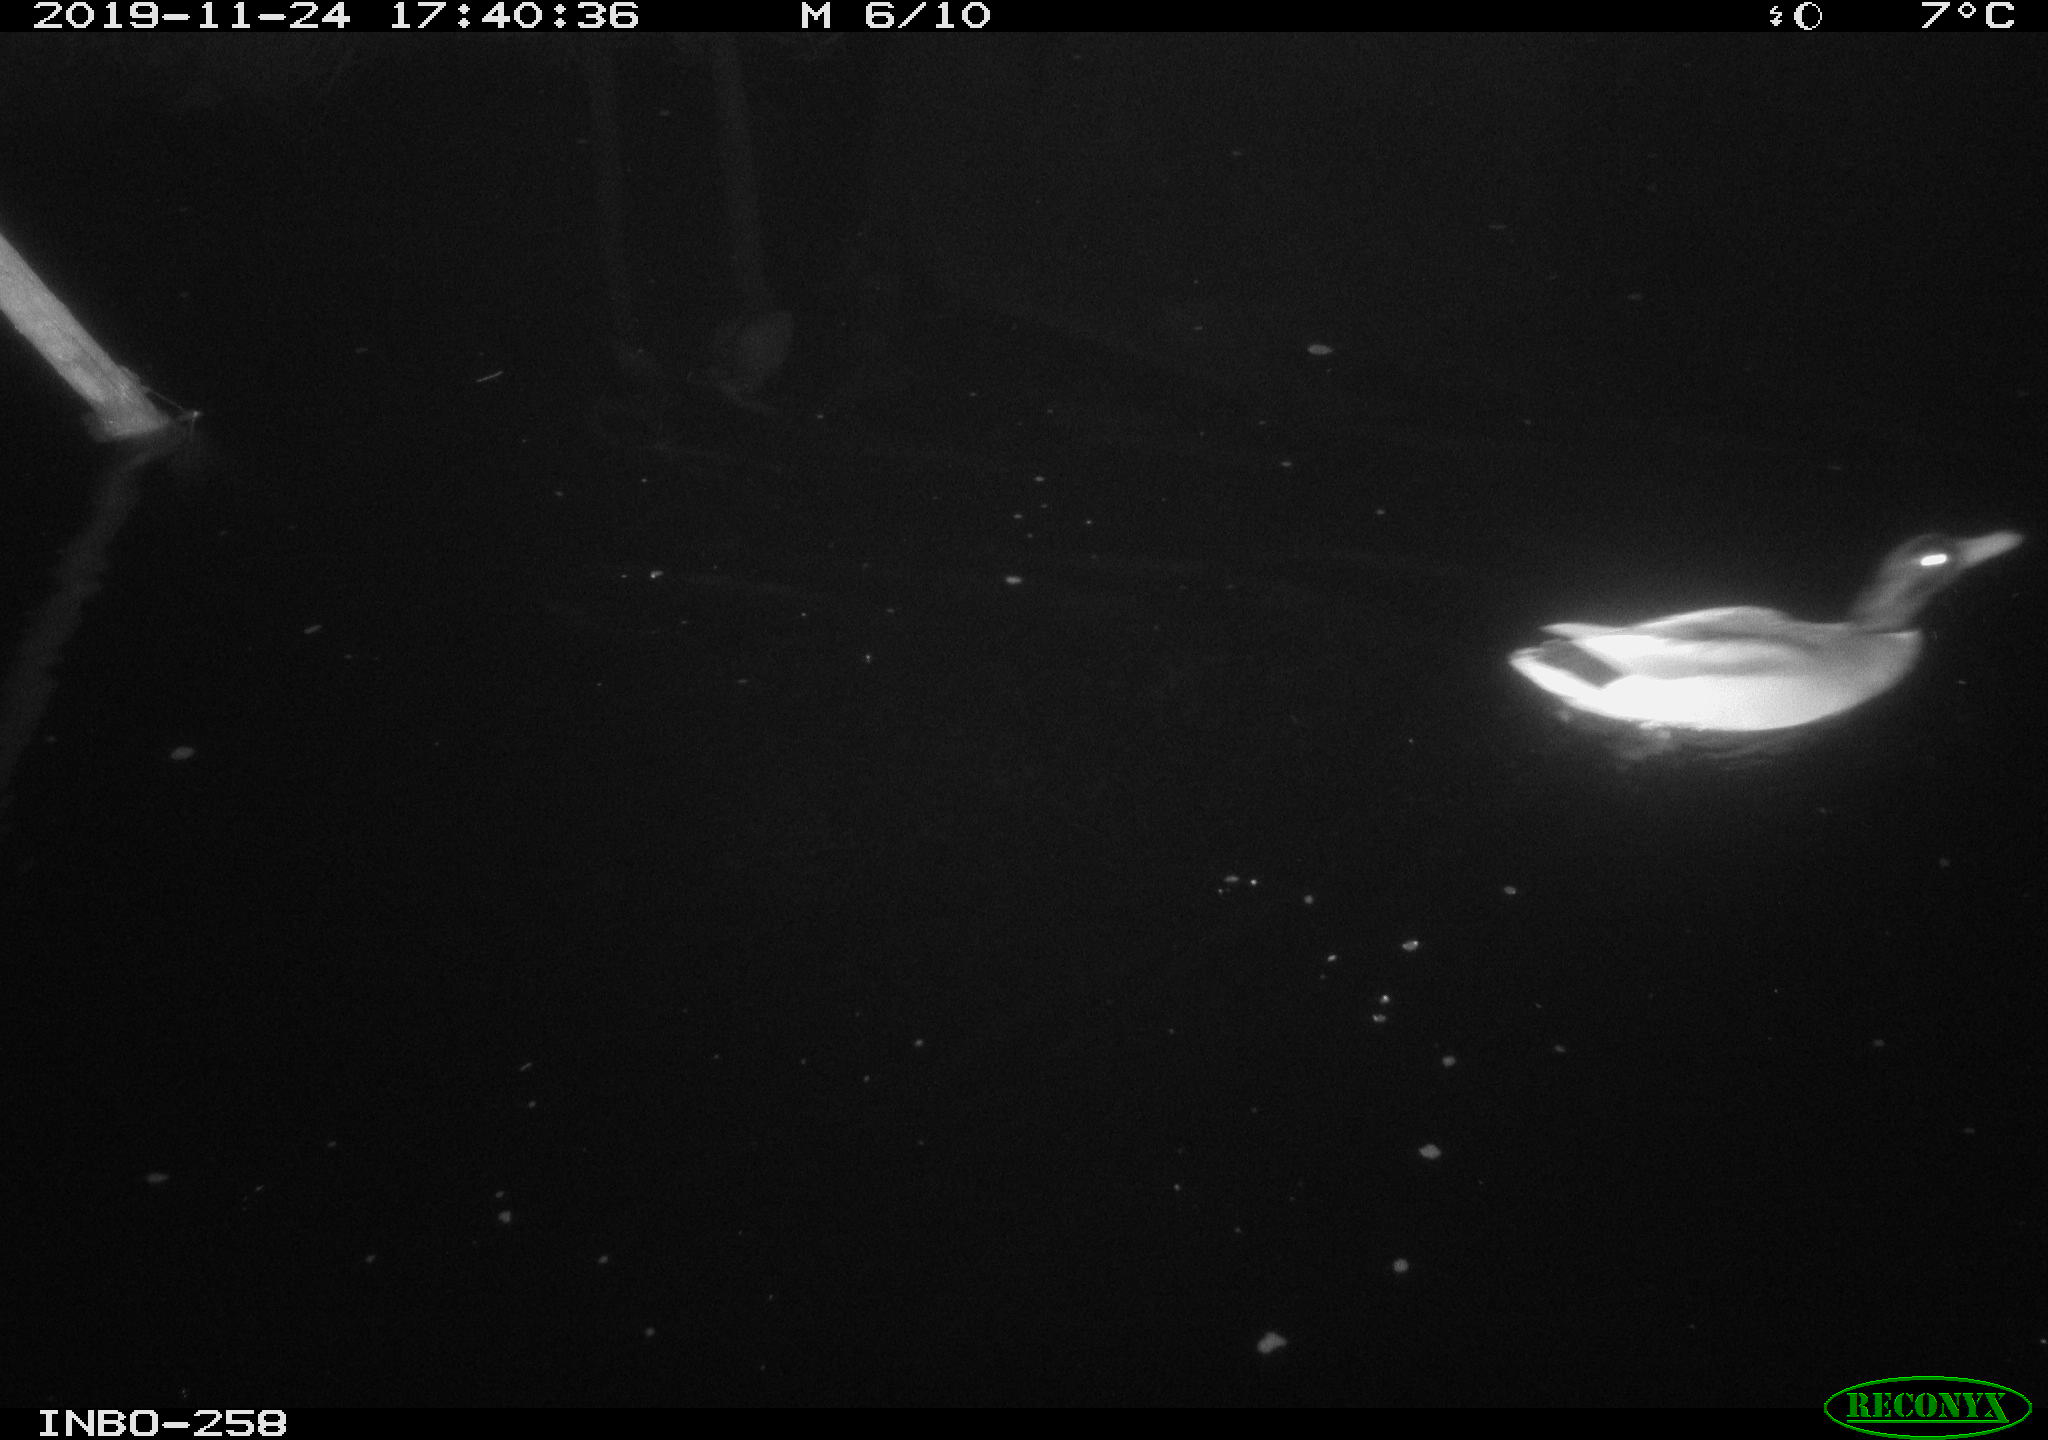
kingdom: Animalia
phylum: Chordata
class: Aves
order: Anseriformes
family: Anatidae
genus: Anas
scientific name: Anas platyrhynchos
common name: Mallard
